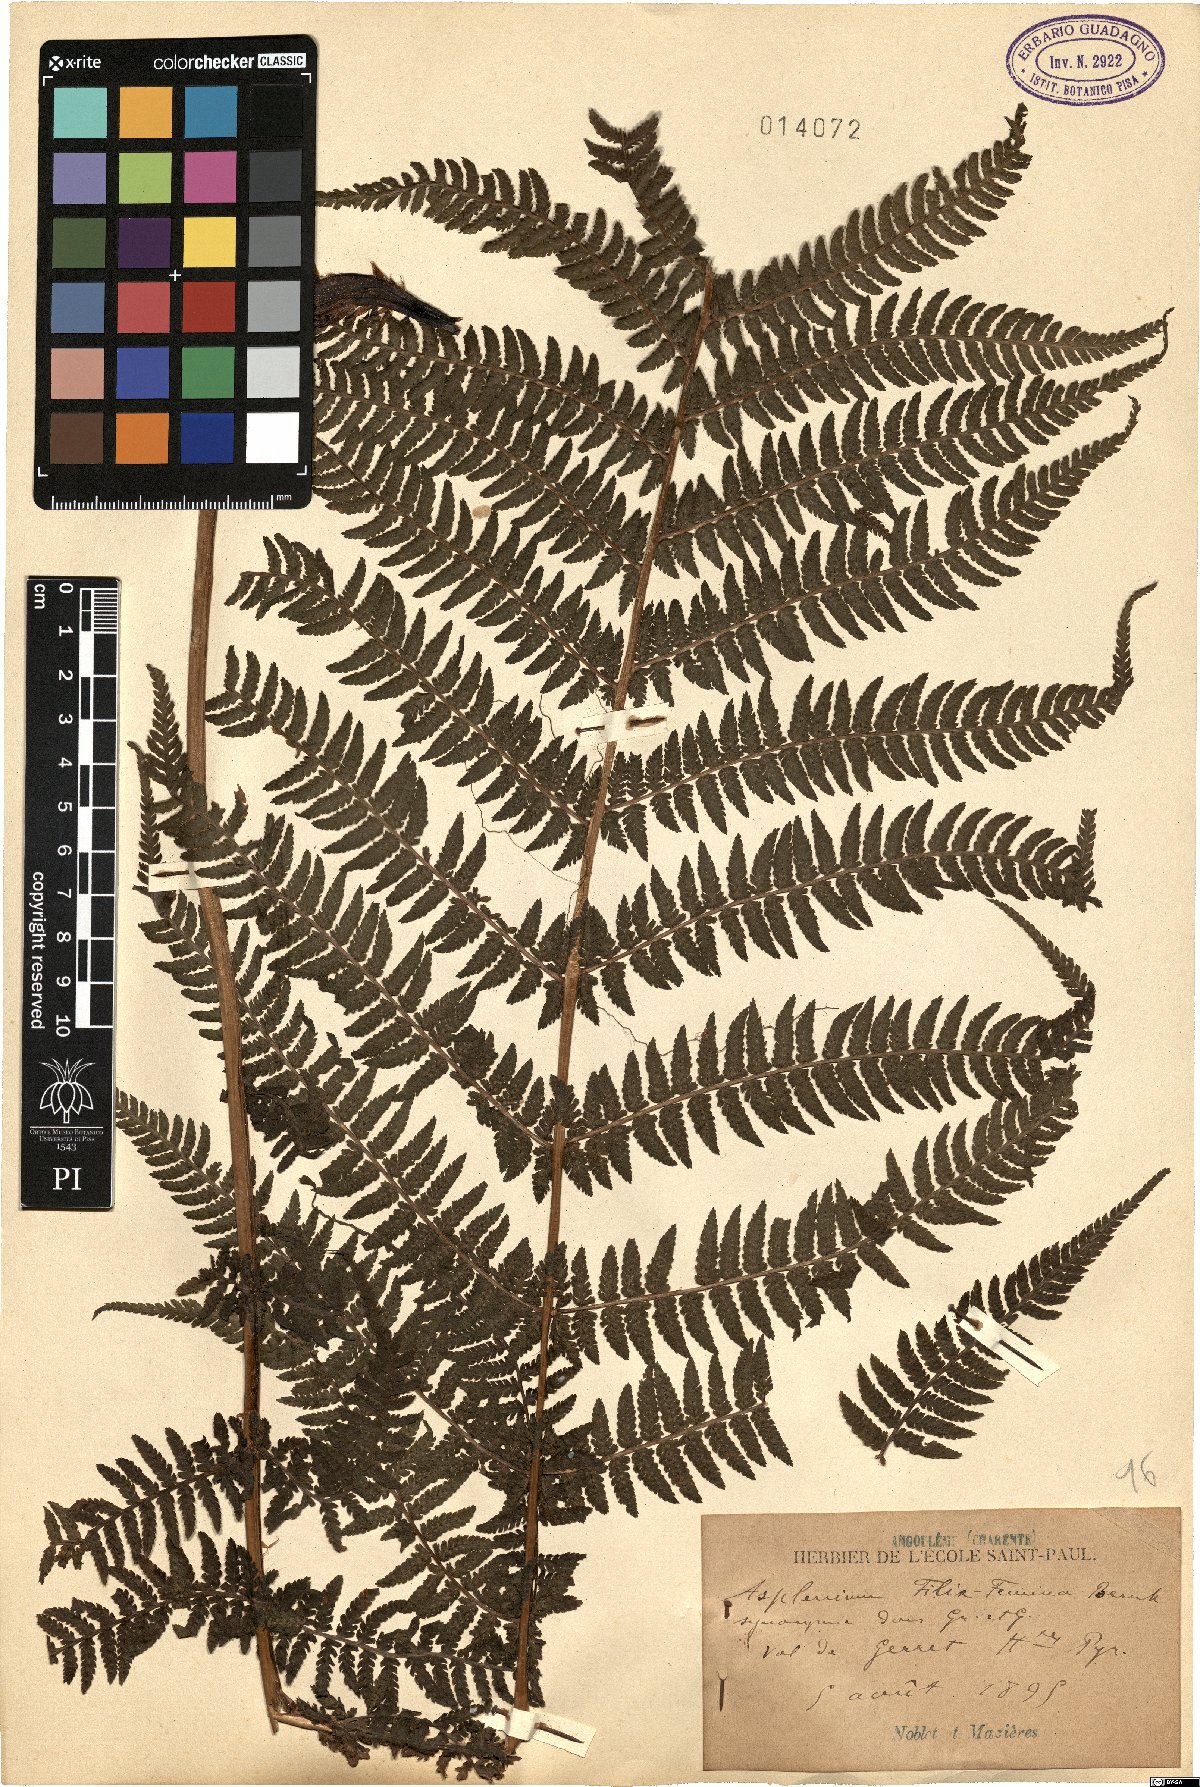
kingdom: Plantae
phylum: Tracheophyta
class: Polypodiopsida
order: Polypodiales
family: Athyriaceae
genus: Athyrium
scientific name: Athyrium filix-femina
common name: Lady fern
